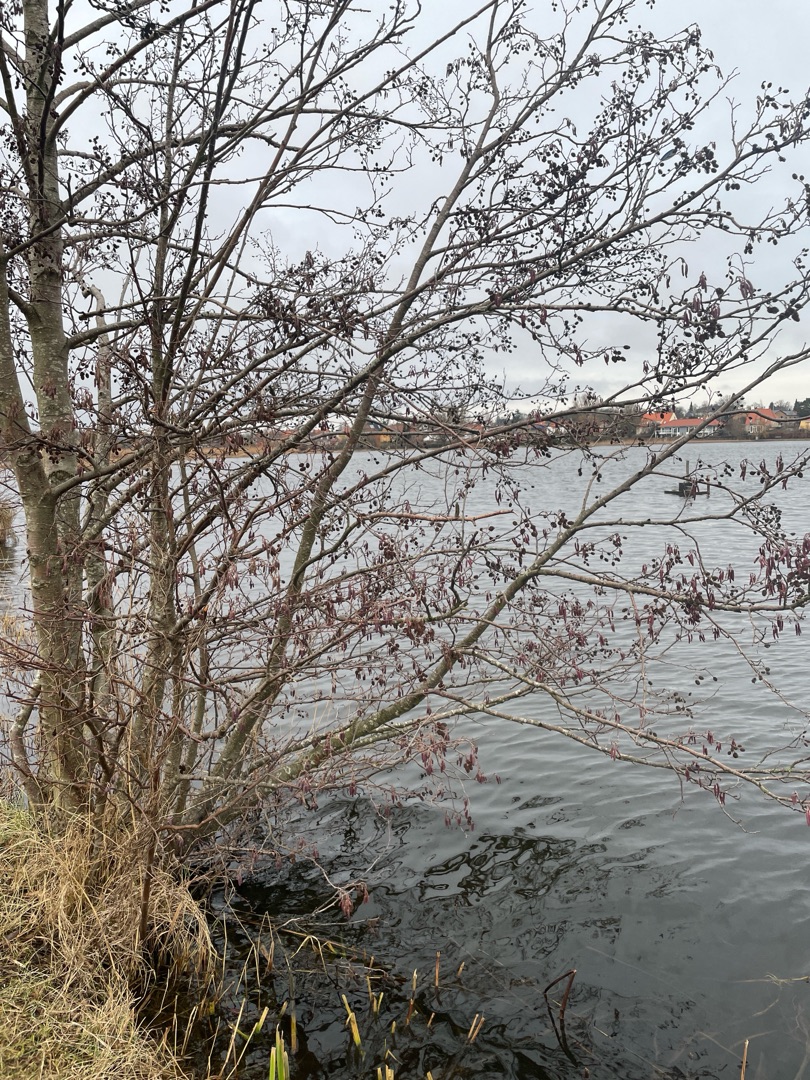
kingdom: Plantae
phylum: Tracheophyta
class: Magnoliopsida
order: Fagales
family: Betulaceae
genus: Alnus
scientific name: Alnus glutinosa
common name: Rød-el
